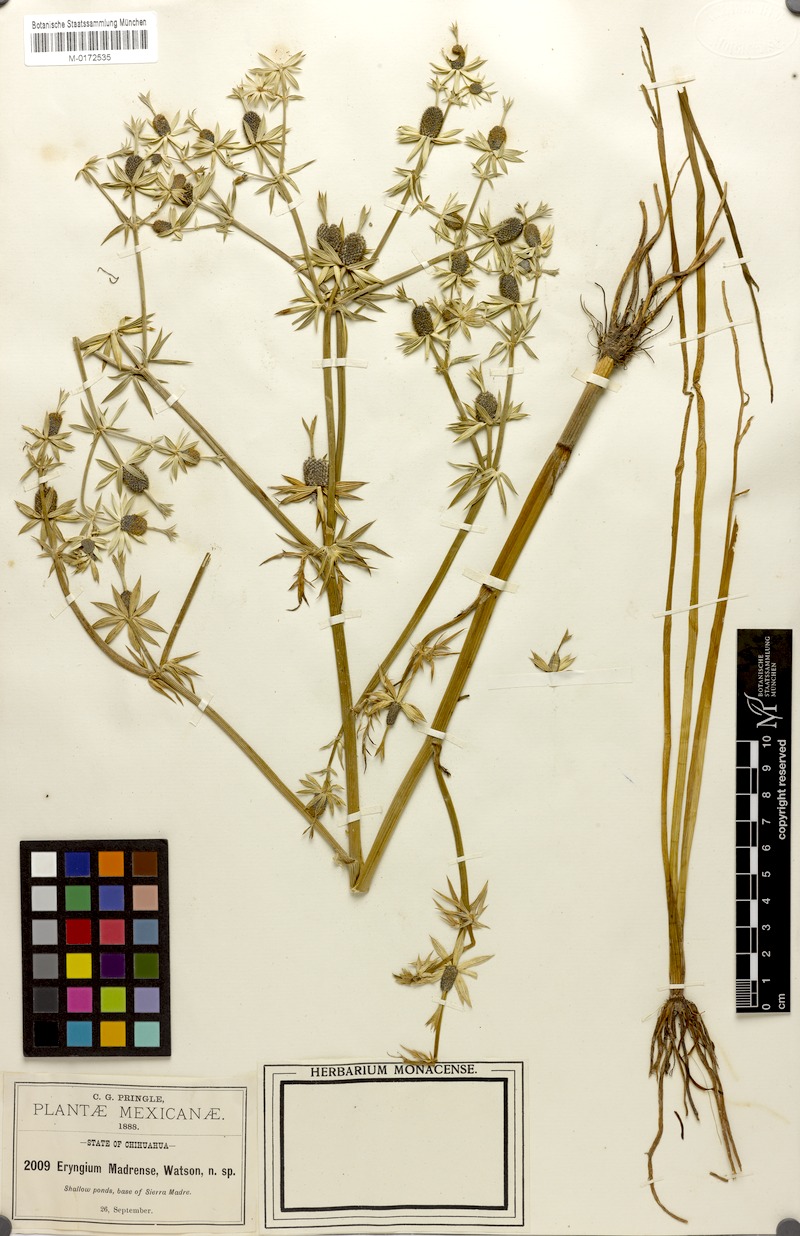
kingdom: Plantae
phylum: Tracheophyta
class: Magnoliopsida
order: Apiales
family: Apiaceae
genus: Eryngium
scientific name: Eryngium madrense
